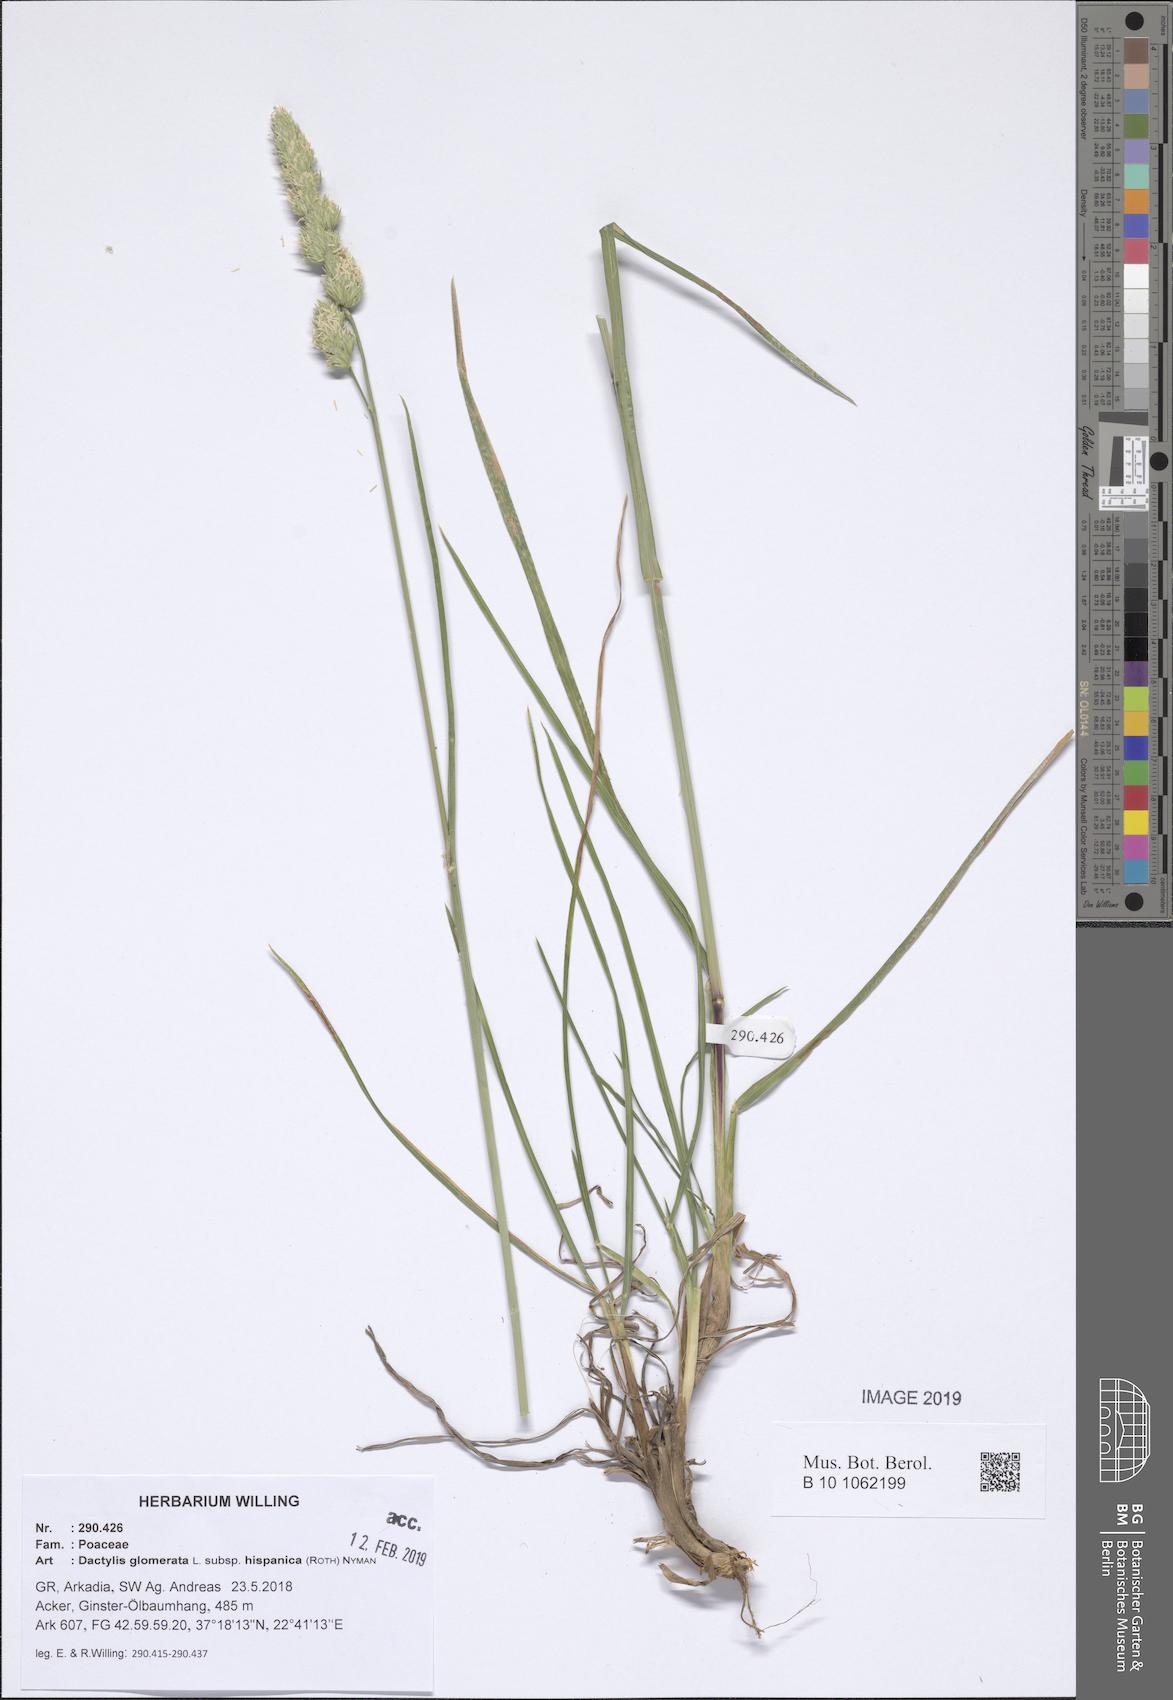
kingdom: Plantae
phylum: Tracheophyta
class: Liliopsida
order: Poales
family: Poaceae
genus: Dactylis
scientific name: Dactylis glomerata
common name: Orchardgrass
